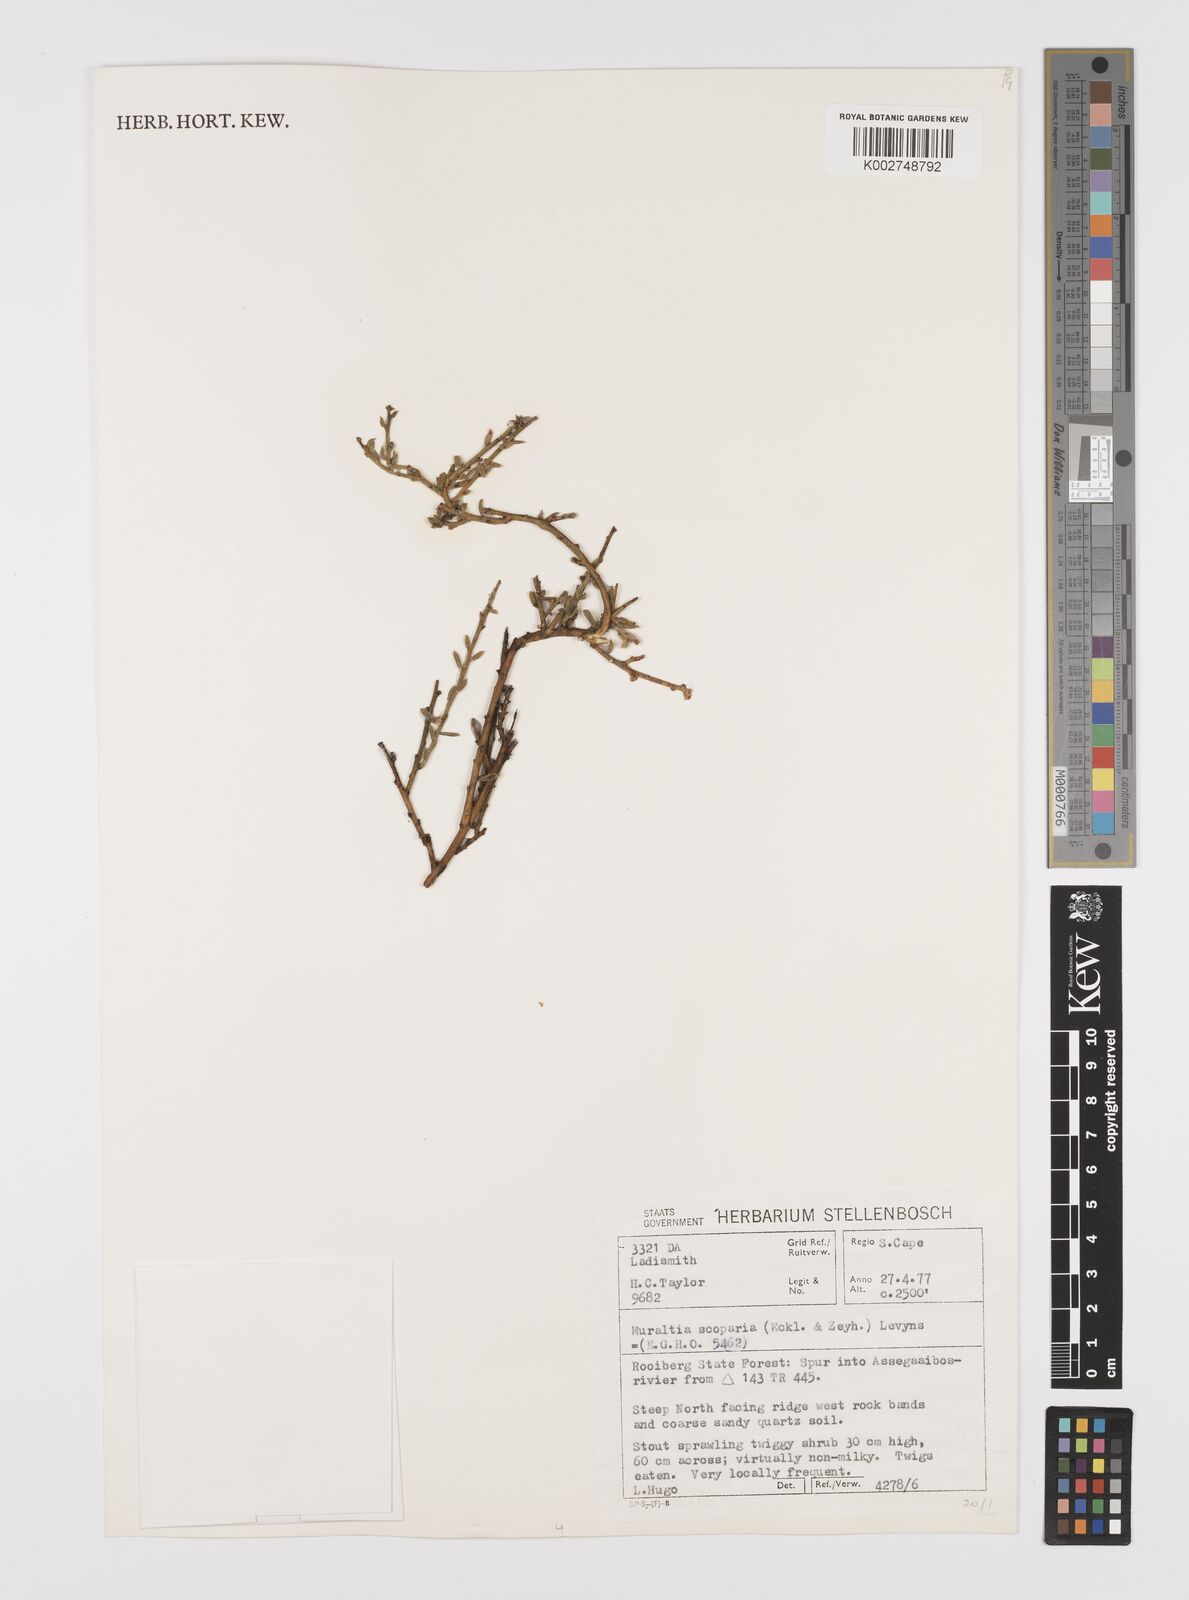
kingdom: Plantae
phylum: Tracheophyta
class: Magnoliopsida
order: Fabales
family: Polygalaceae
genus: Muraltia
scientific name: Muraltia scoparia
